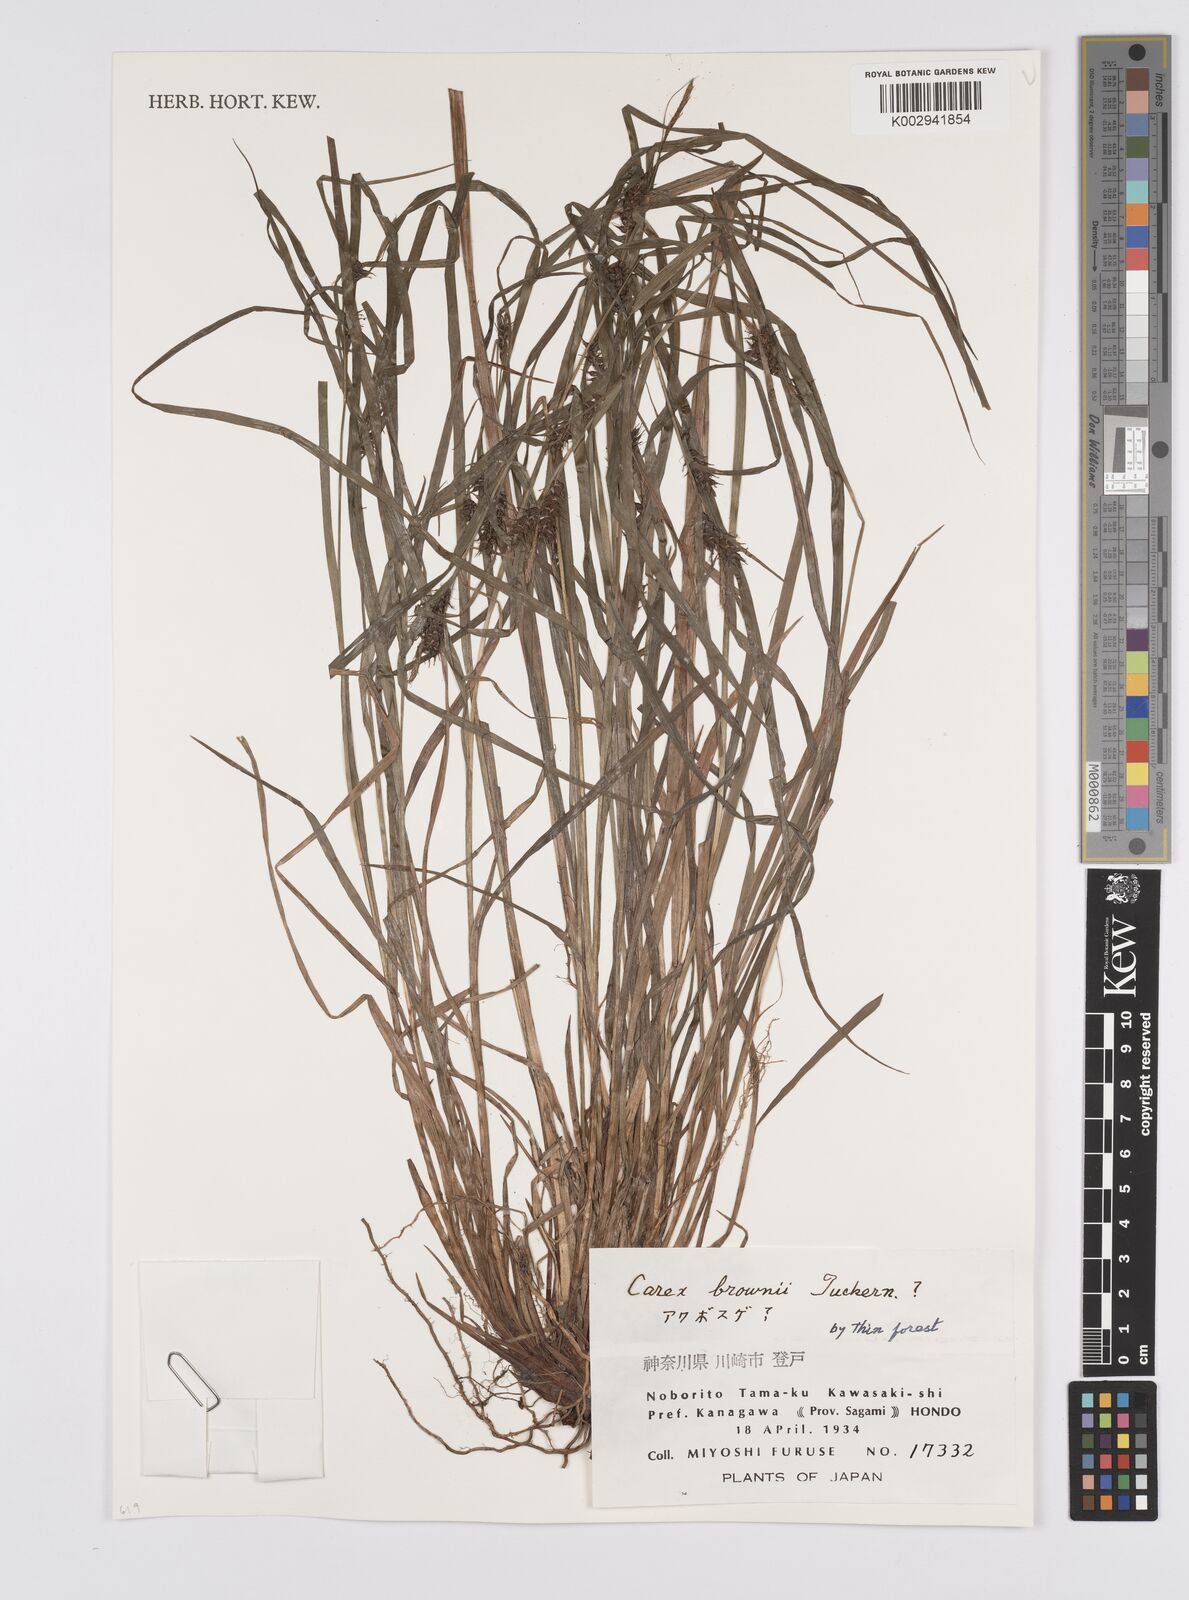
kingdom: Plantae
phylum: Tracheophyta
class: Liliopsida
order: Poales
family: Cyperaceae
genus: Carex
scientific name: Carex brownii
